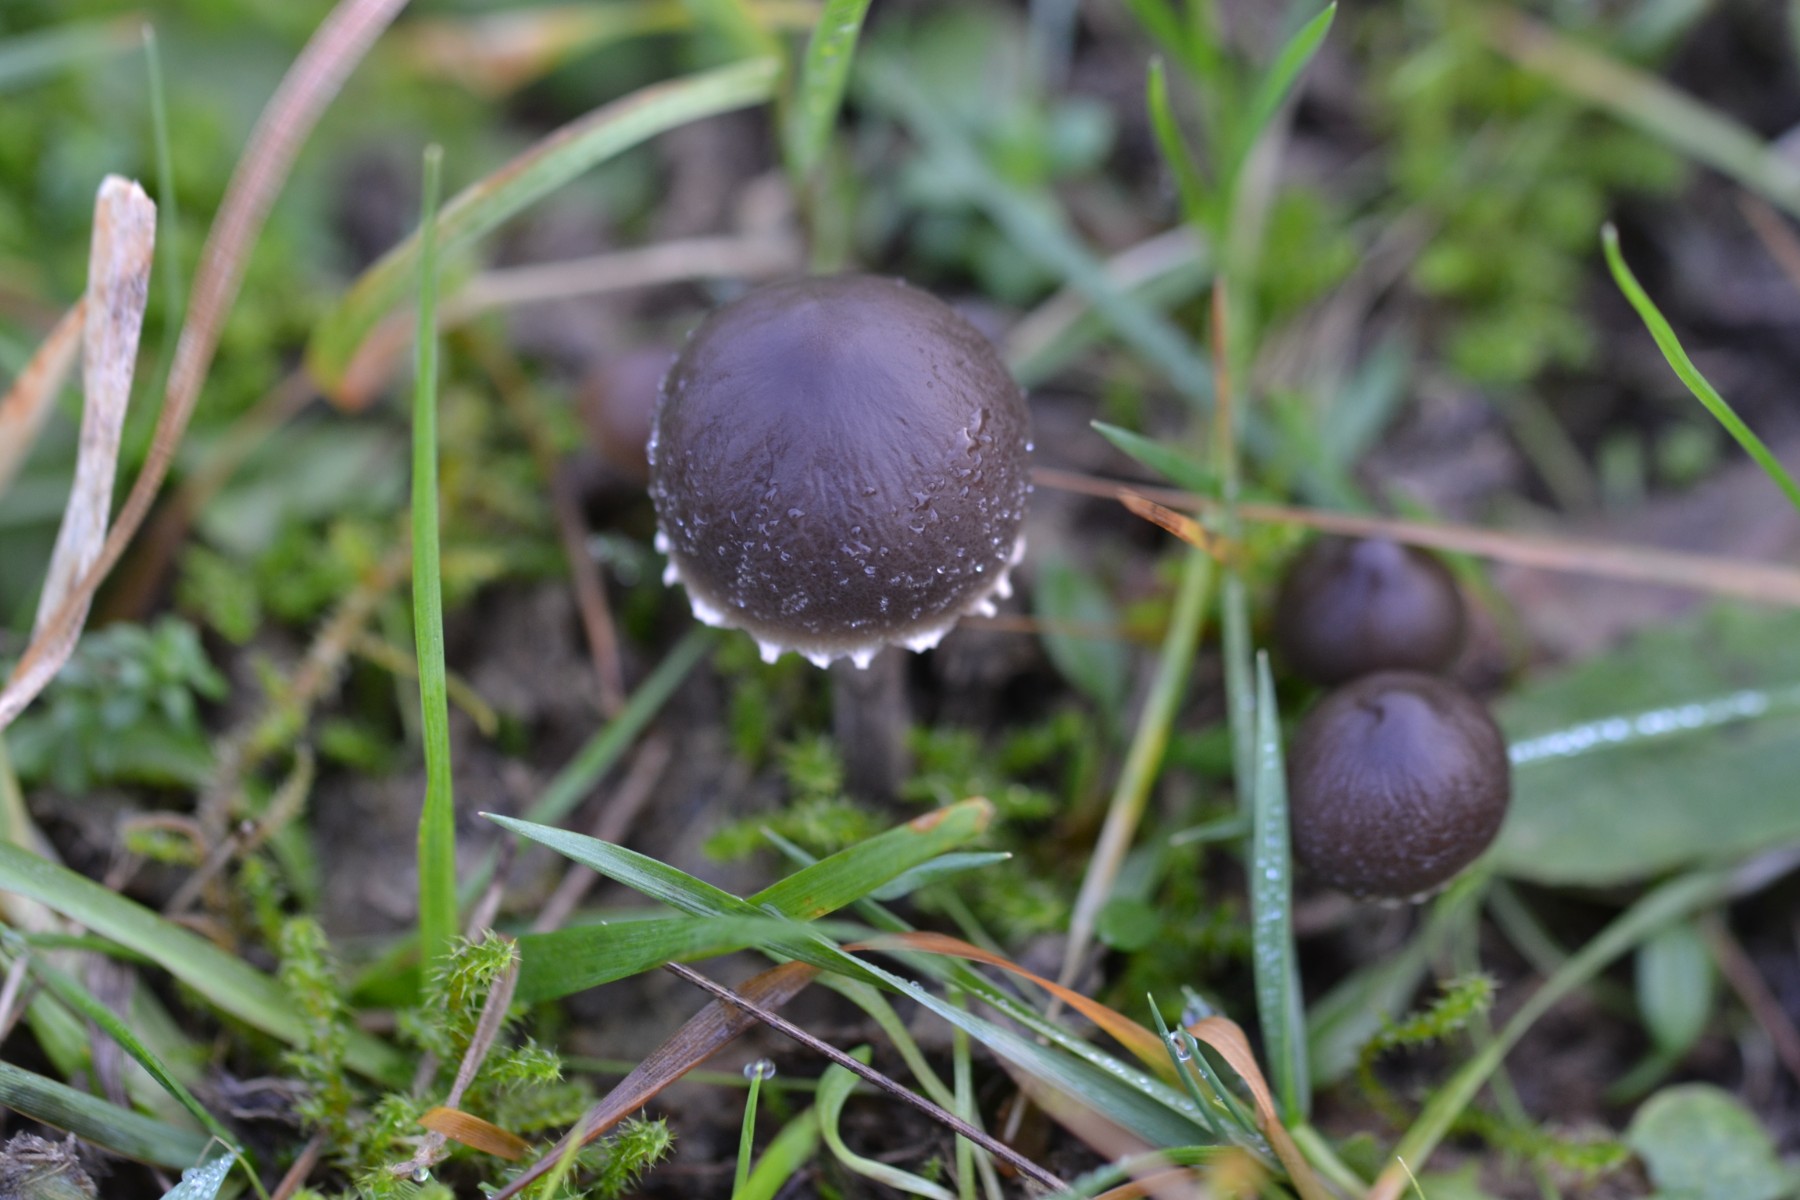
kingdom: Fungi
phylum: Basidiomycota
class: Agaricomycetes
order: Agaricales
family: Bolbitiaceae
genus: Panaeolus
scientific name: Panaeolus papilionaceus
